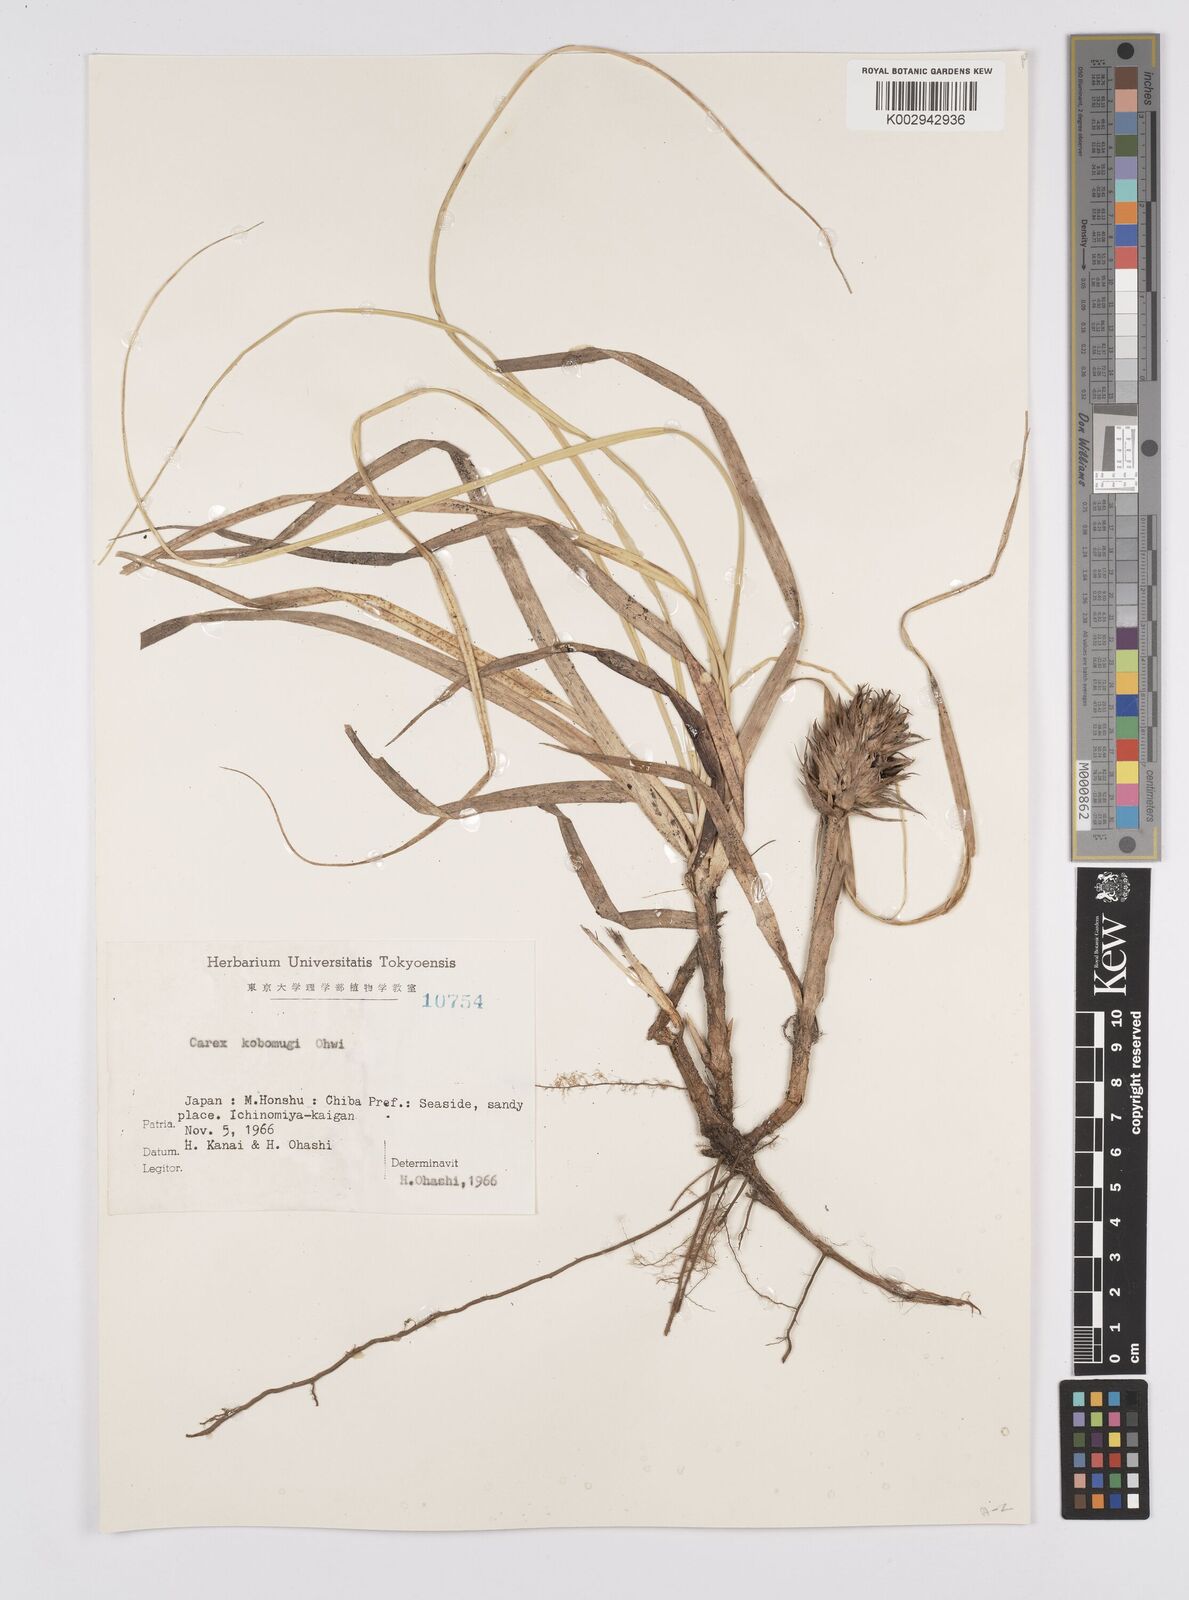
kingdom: Plantae
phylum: Tracheophyta
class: Liliopsida
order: Poales
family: Cyperaceae
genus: Carex
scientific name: Carex kobomugi
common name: Japanese sedge
